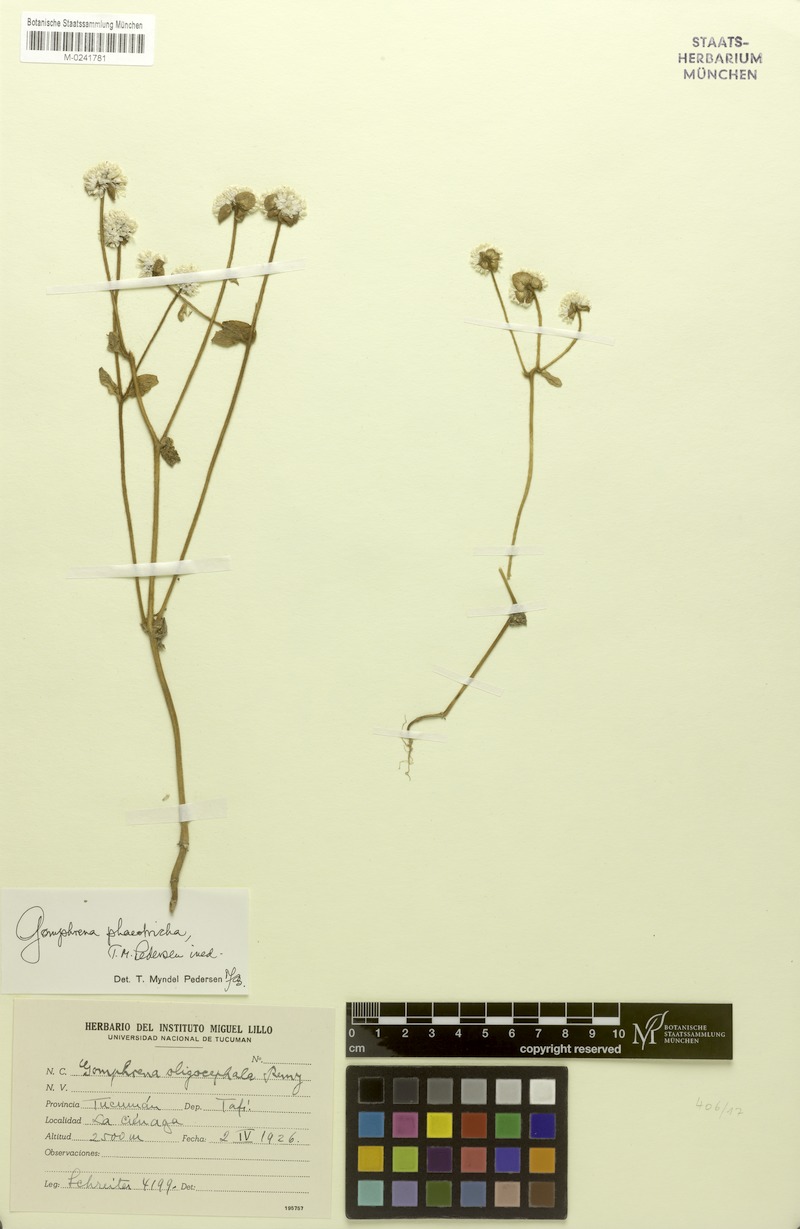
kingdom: Plantae
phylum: Tracheophyta
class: Magnoliopsida
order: Caryophyllales
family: Amaranthaceae
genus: Gomphrena
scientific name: Gomphrena phaeotricha
